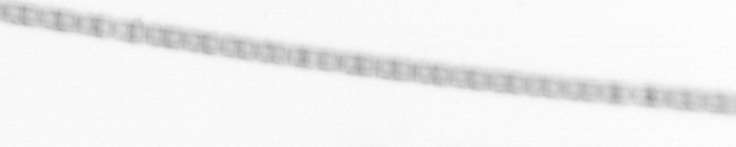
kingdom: Chromista
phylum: Ochrophyta
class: Bacillariophyceae
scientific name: Bacillariophyceae
